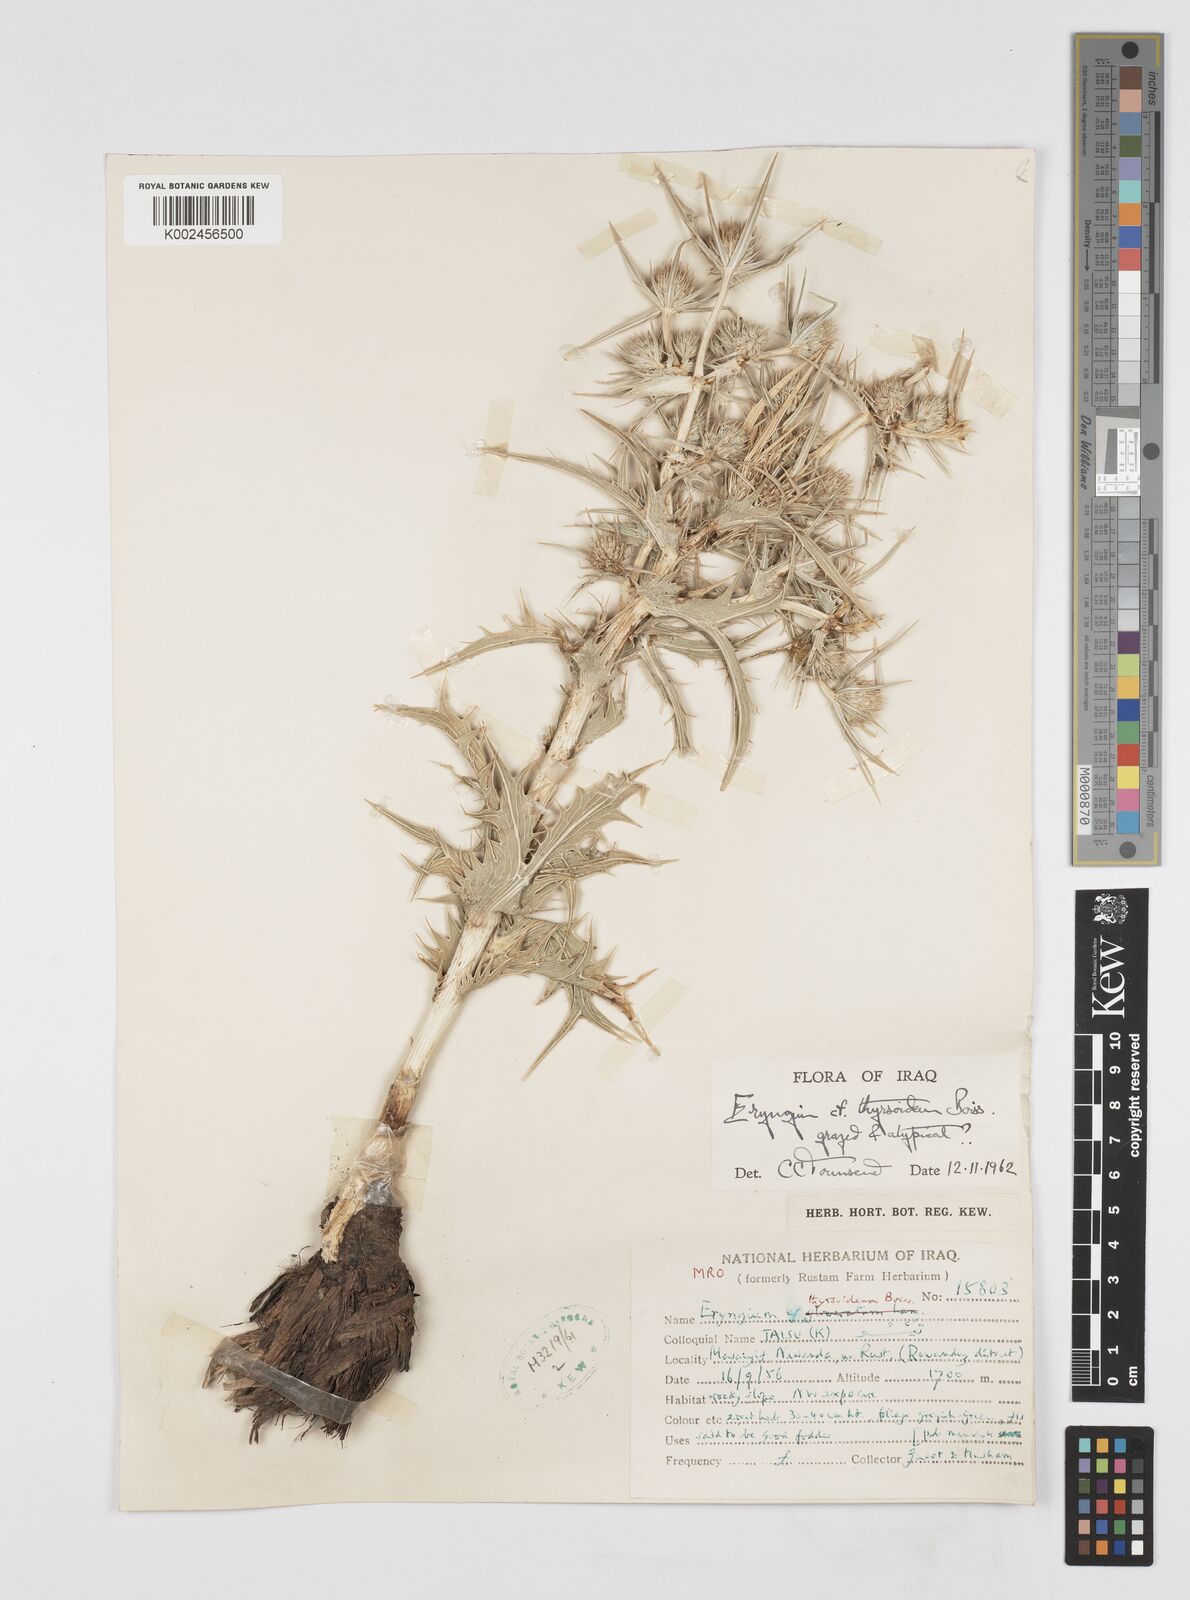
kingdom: Plantae
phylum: Tracheophyta
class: Magnoliopsida
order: Apiales
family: Apiaceae
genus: Eryngium
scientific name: Eryngium thyrsoideum
